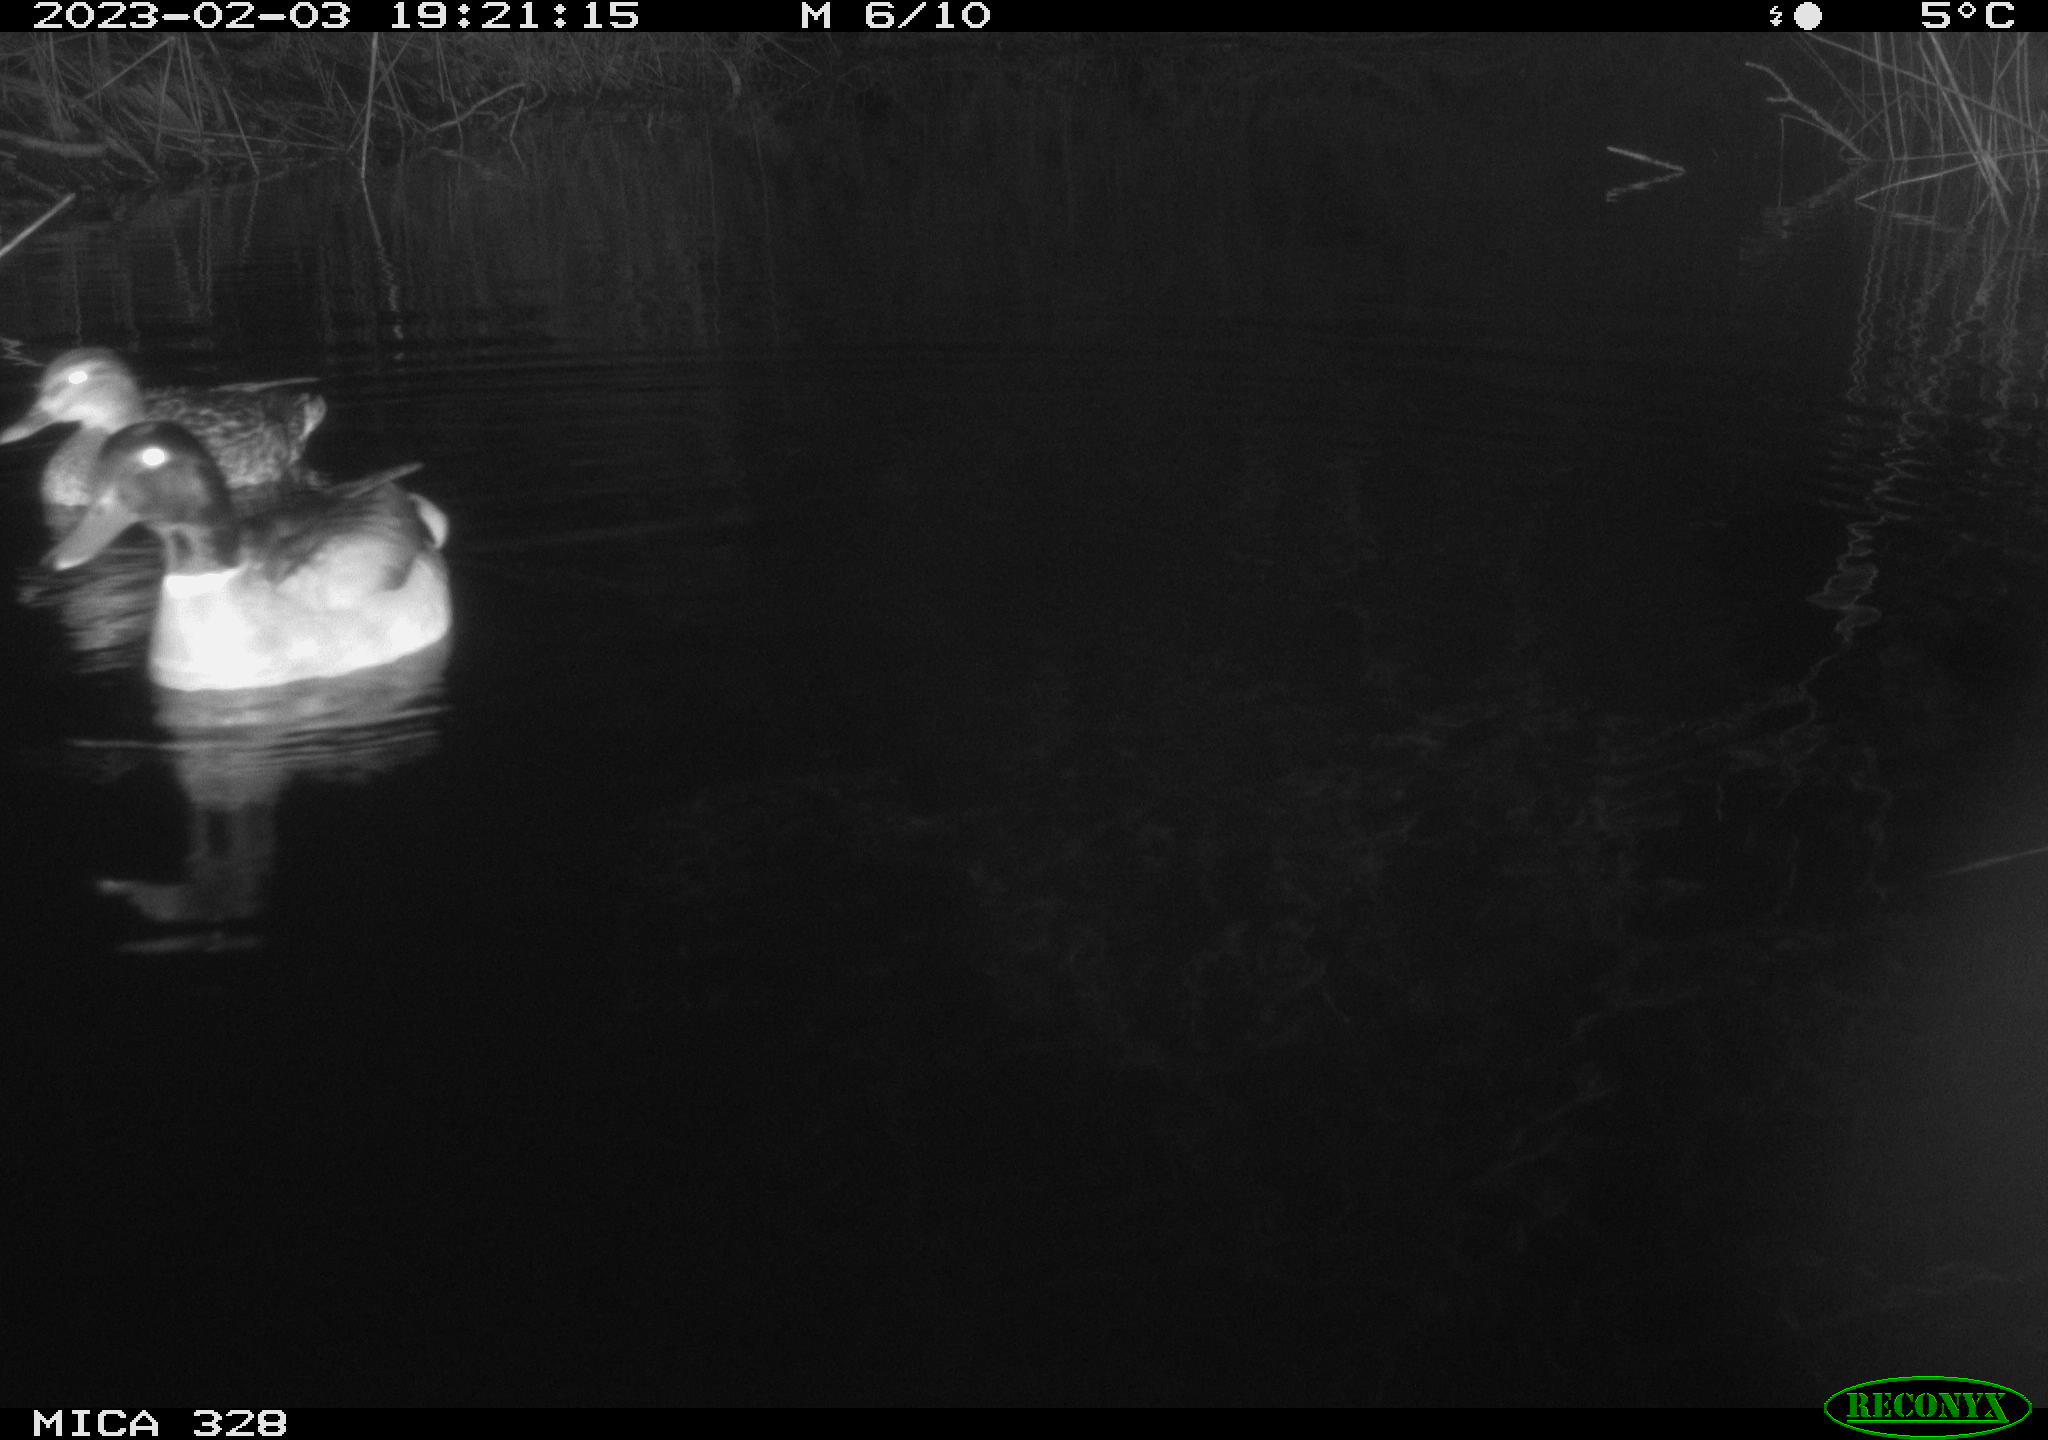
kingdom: Animalia
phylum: Chordata
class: Aves
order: Anseriformes
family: Anatidae
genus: Anas
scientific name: Anas
